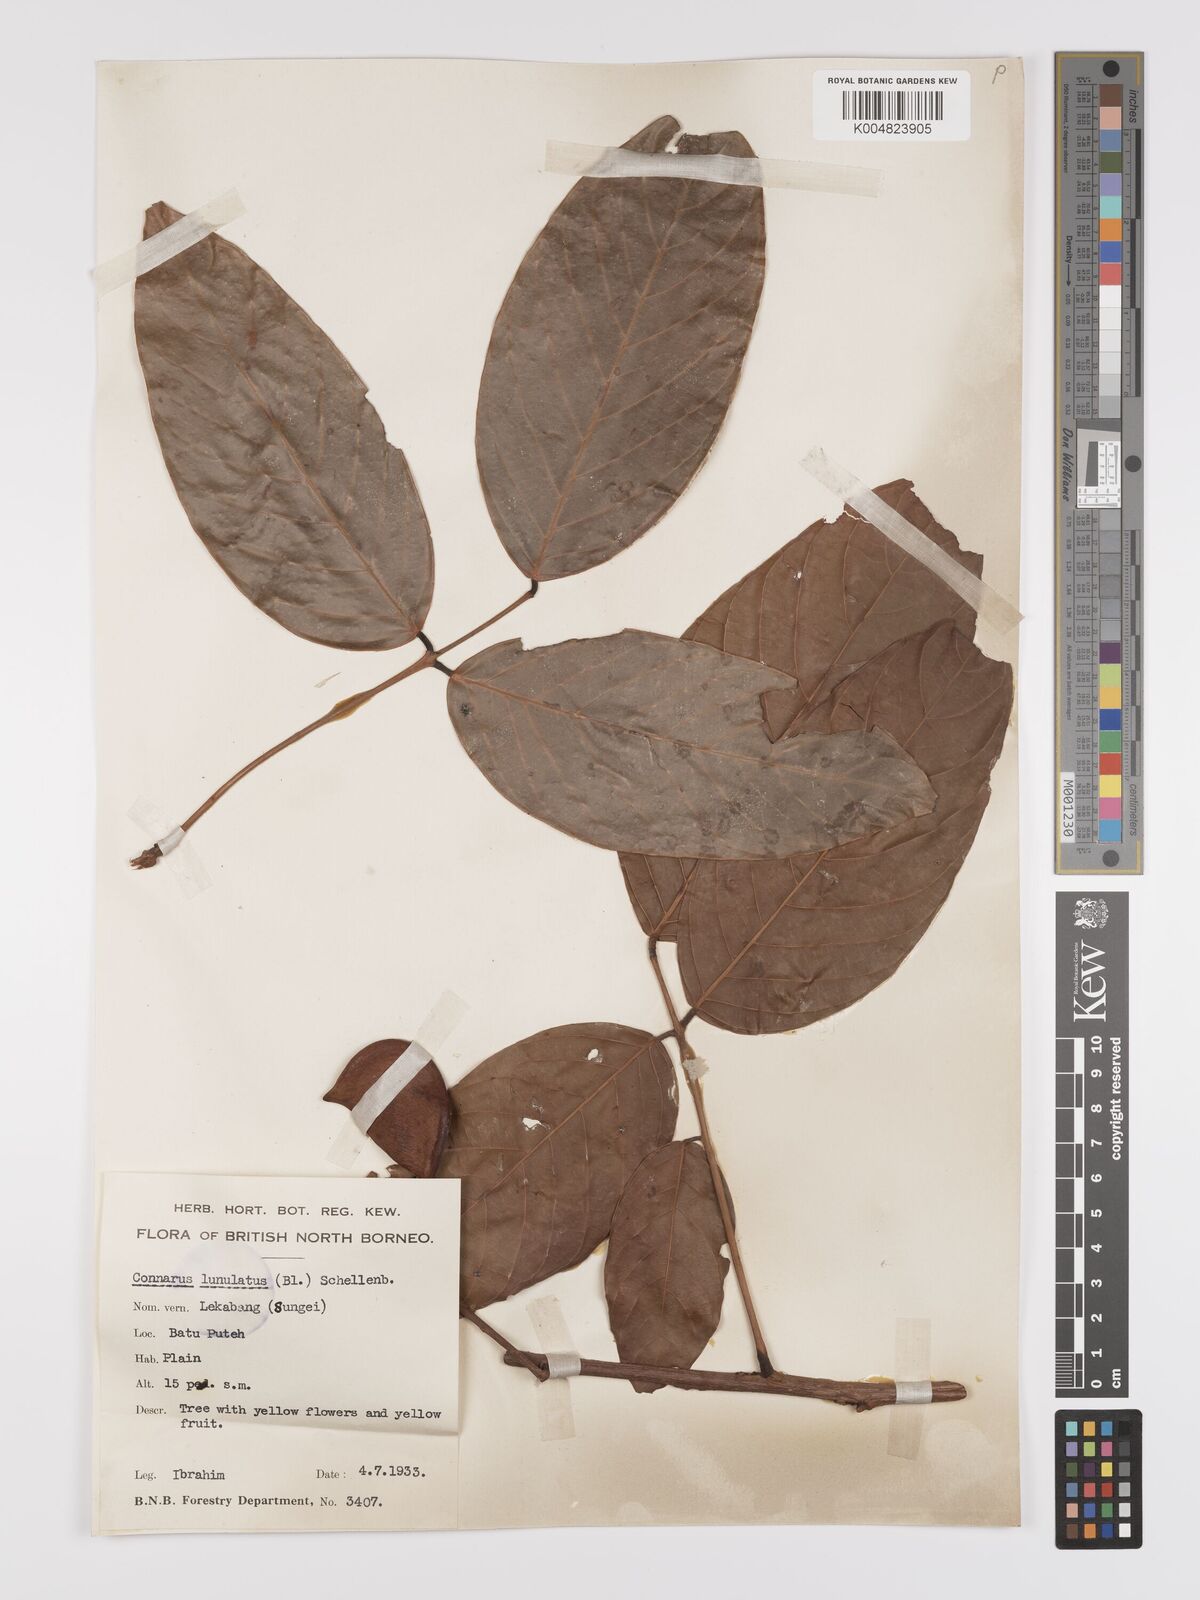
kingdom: Plantae
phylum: Tracheophyta
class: Magnoliopsida
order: Oxalidales
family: Connaraceae
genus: Connarus
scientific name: Connarus grandis
